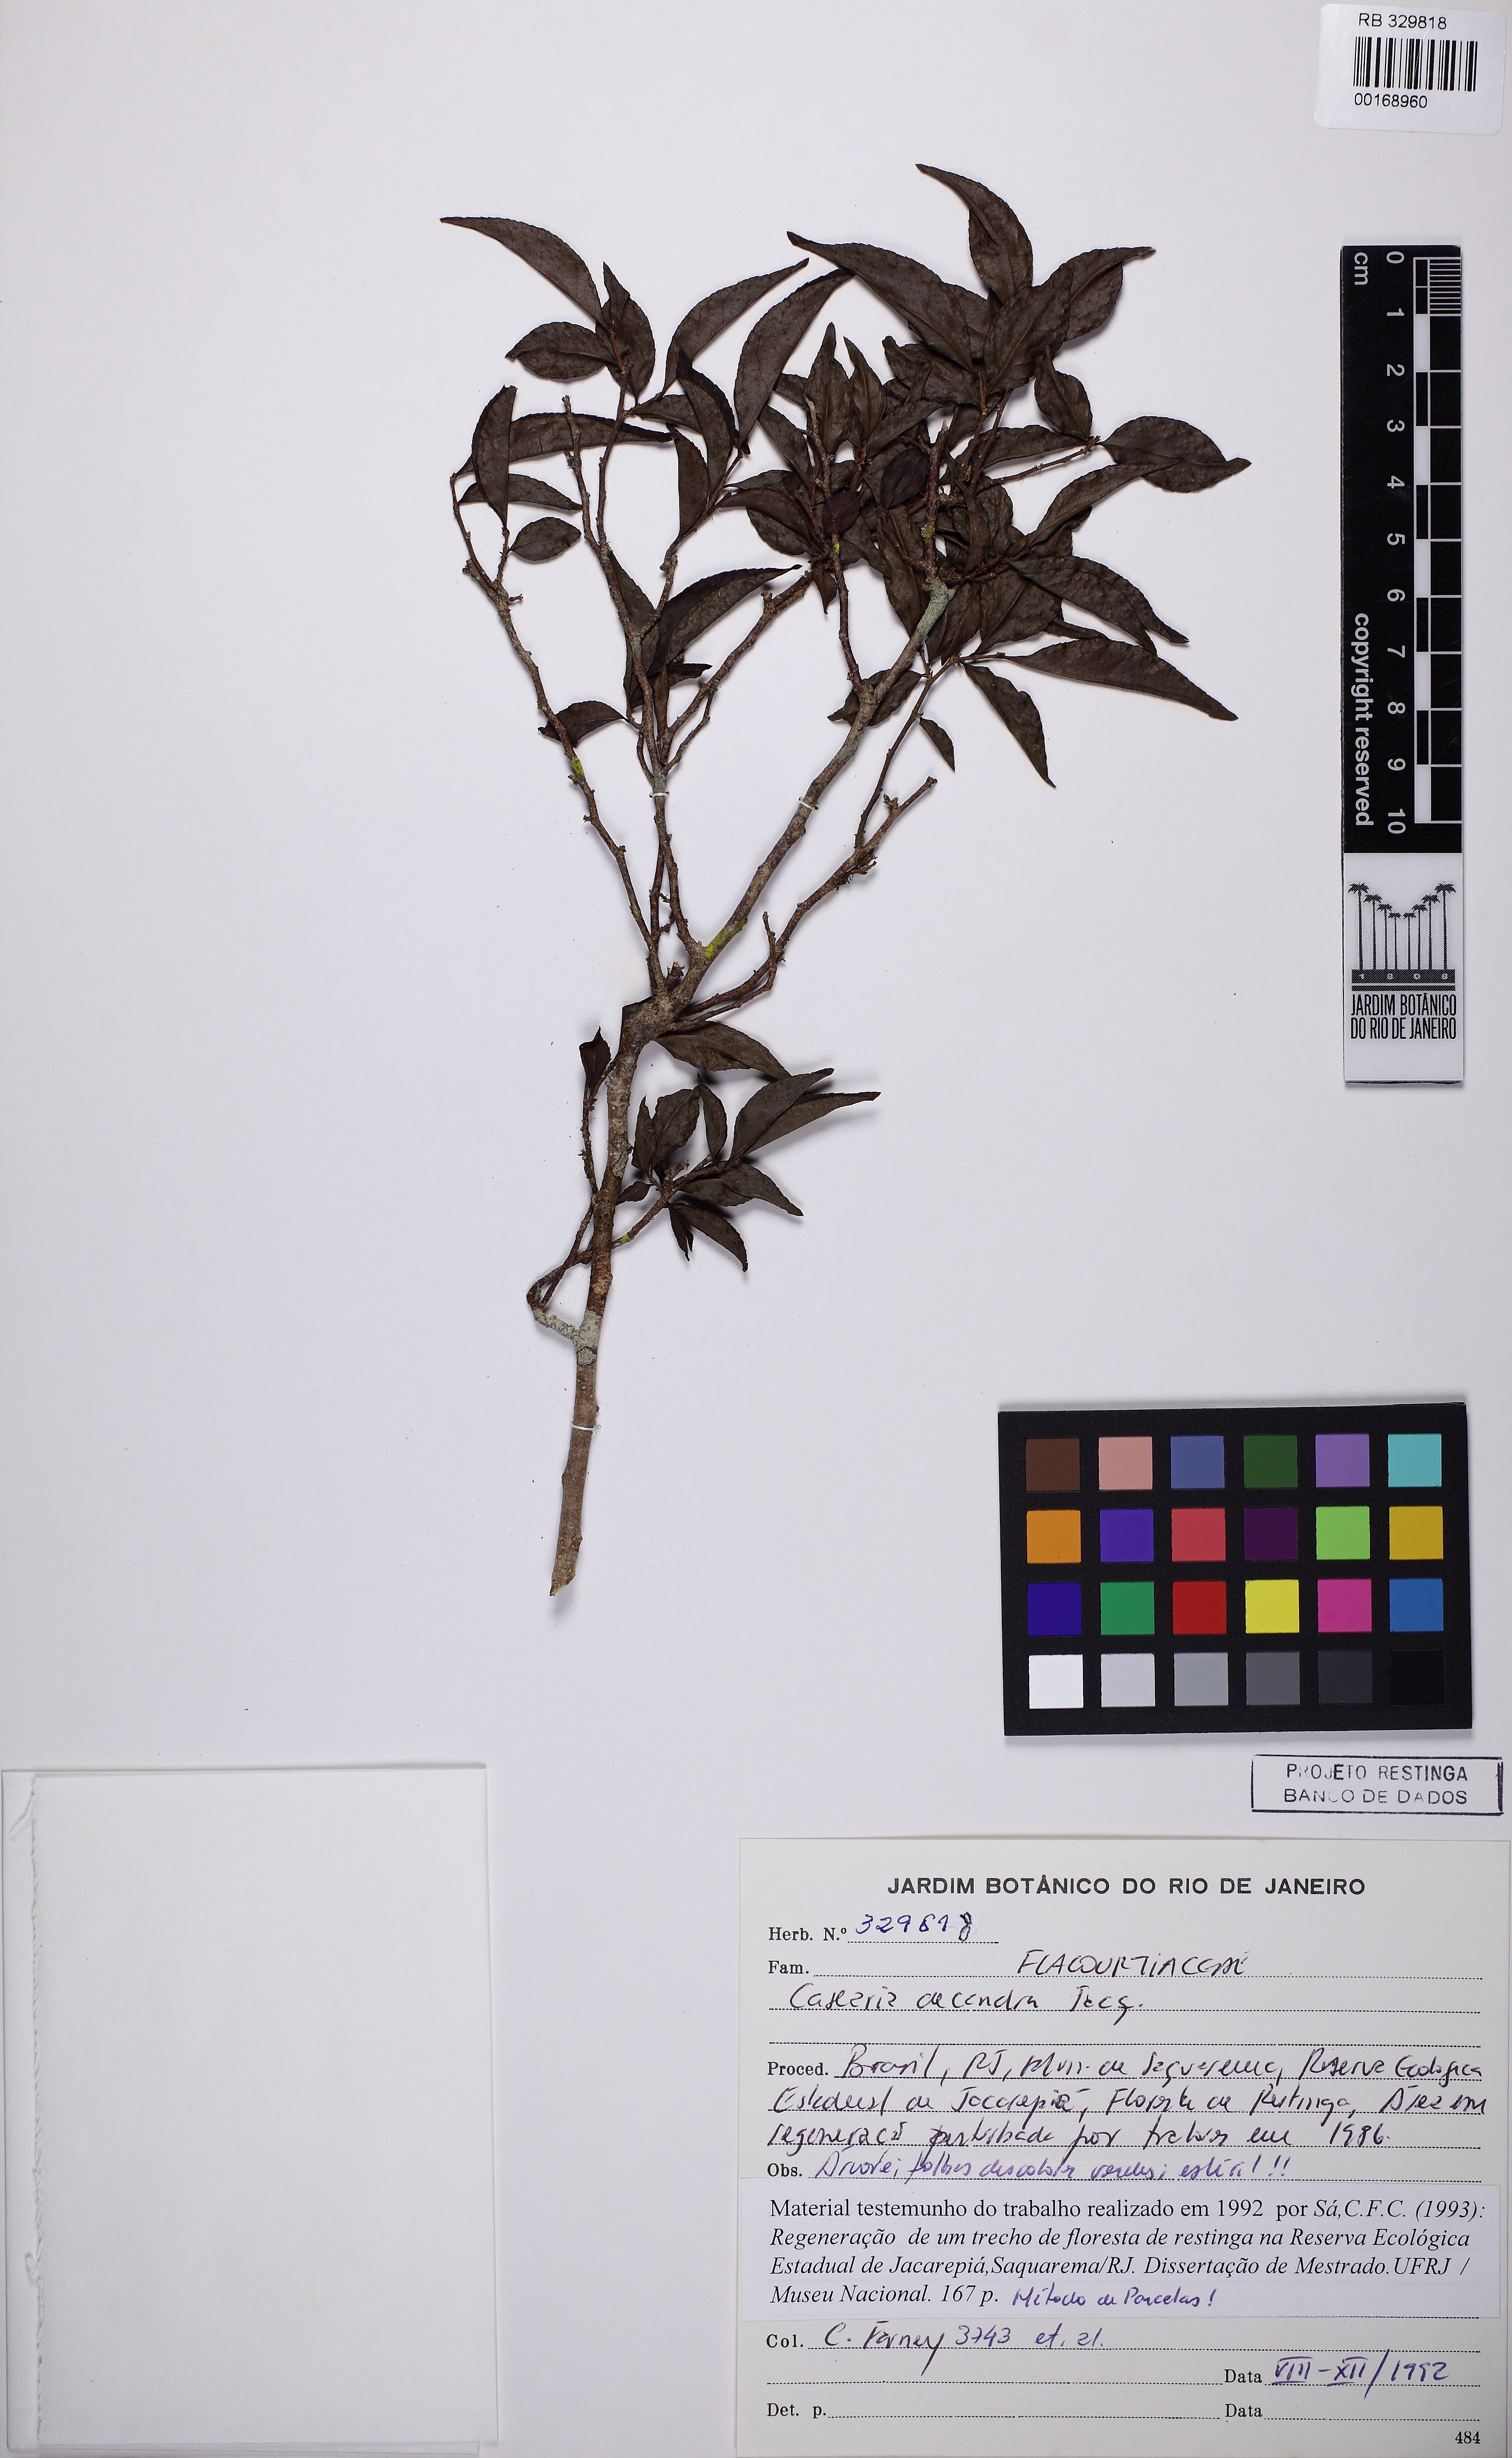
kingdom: Plantae
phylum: Tracheophyta
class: Magnoliopsida
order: Malpighiales
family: Salicaceae
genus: Casearia
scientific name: Casearia decandra
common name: Crack open
